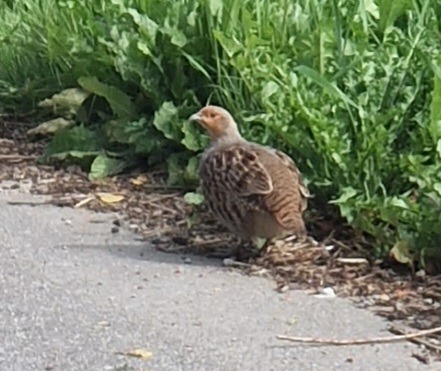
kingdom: Animalia
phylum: Chordata
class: Aves
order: Galliformes
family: Phasianidae
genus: Perdix
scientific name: Perdix perdix
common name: Agerhøne
